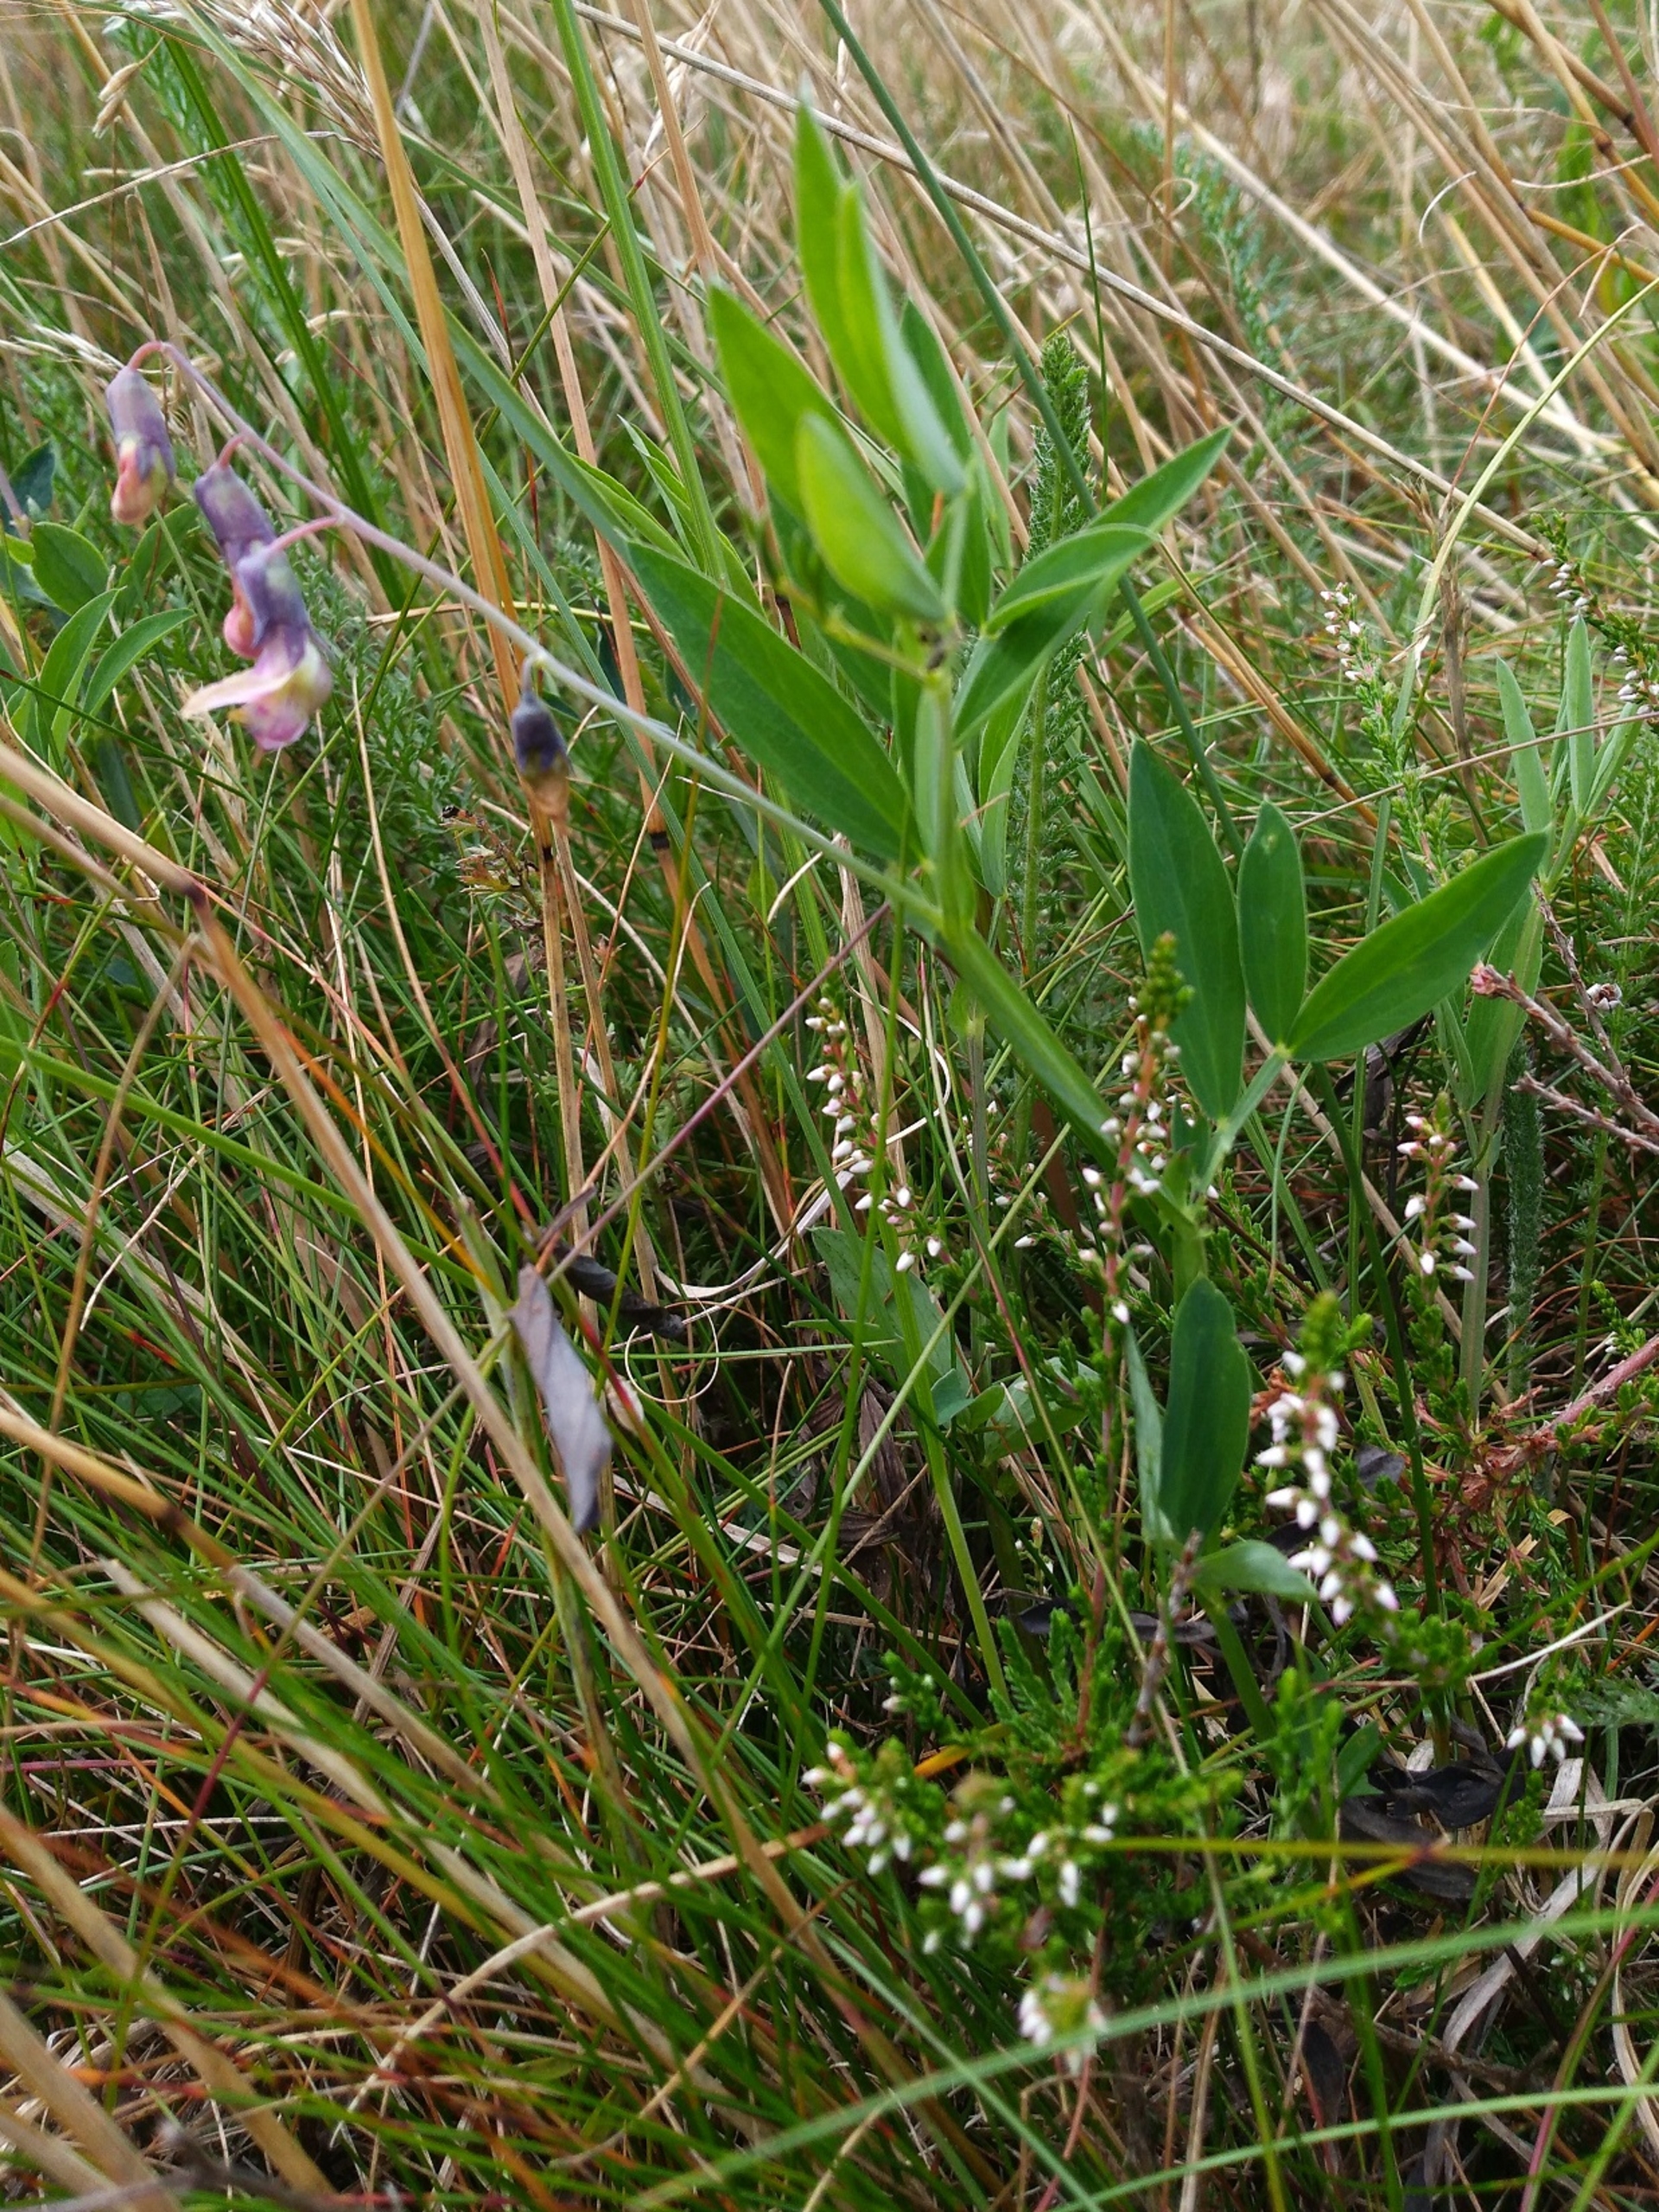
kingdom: Plantae
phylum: Tracheophyta
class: Magnoliopsida
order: Fabales
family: Fabaceae
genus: Lathyrus
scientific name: Lathyrus linifolius
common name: Krat-fladbælg
